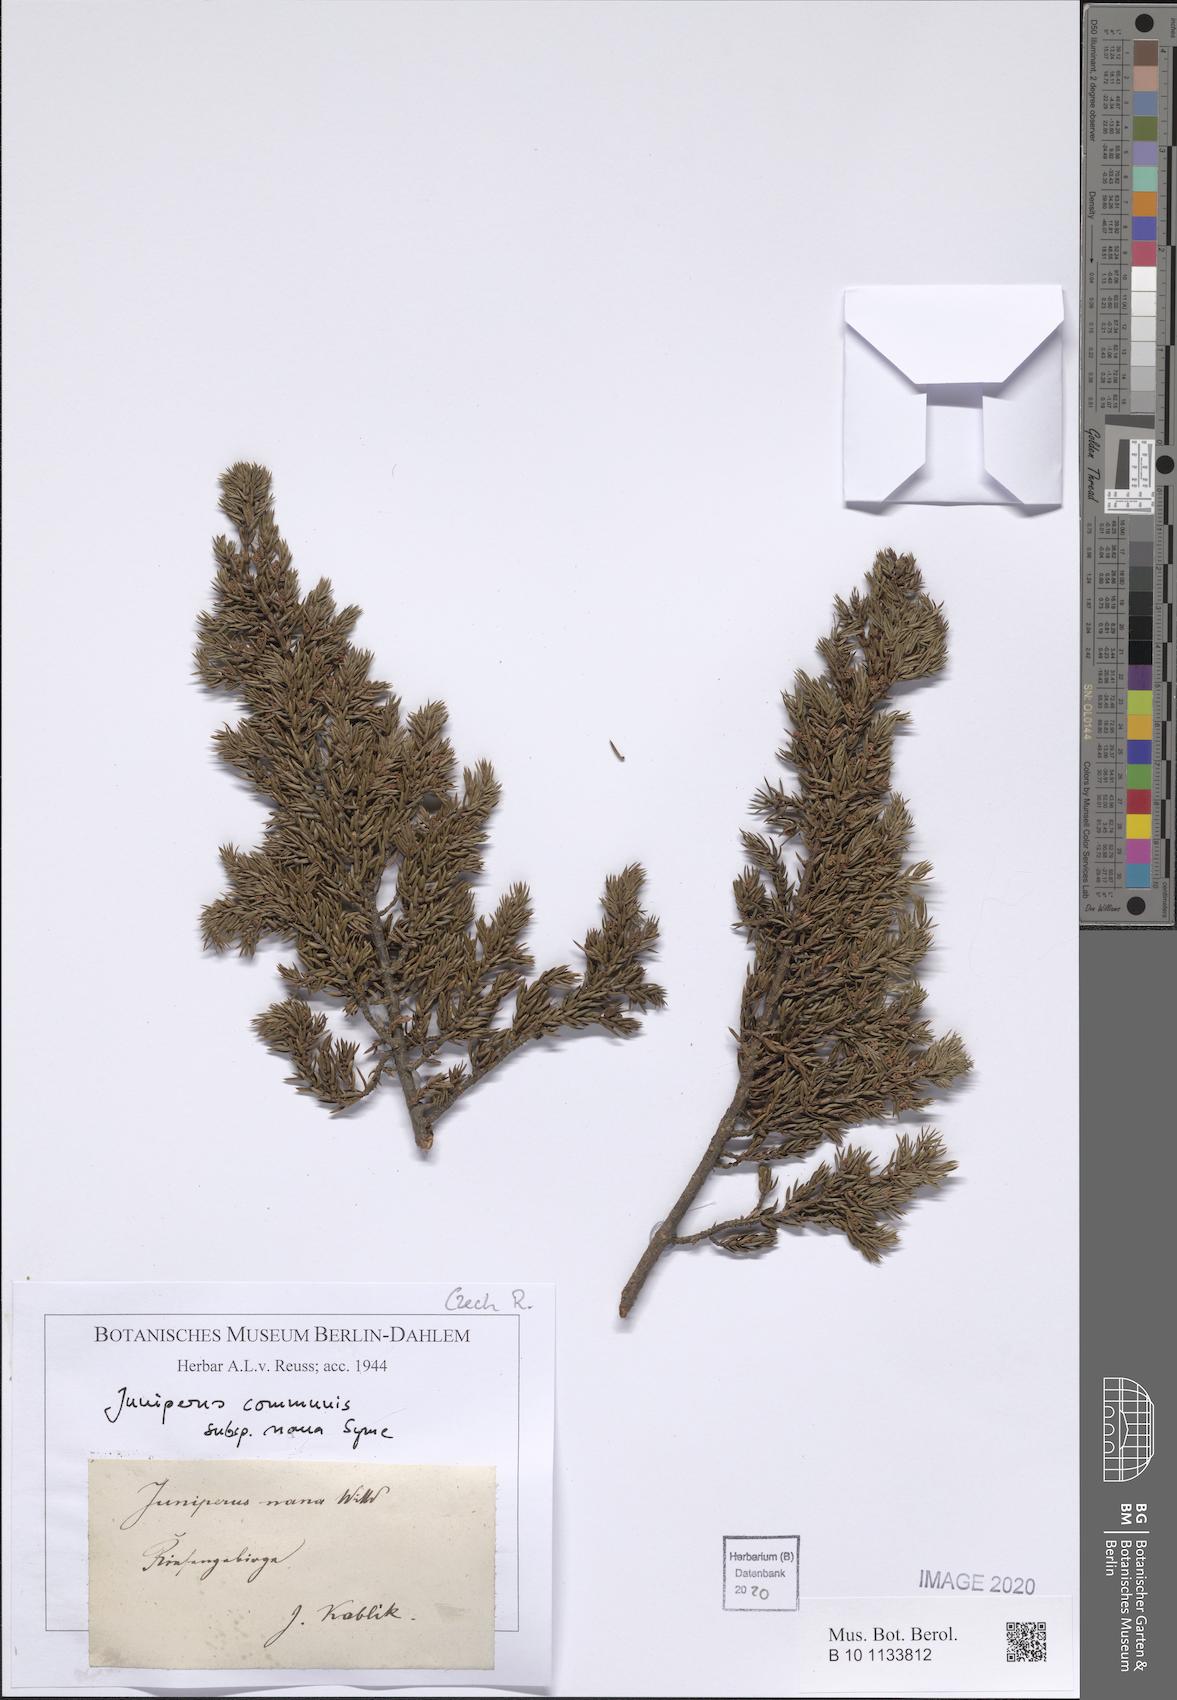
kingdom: Plantae
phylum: Tracheophyta
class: Pinopsida
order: Pinales
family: Cupressaceae
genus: Juniperus
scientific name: Juniperus communis
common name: Common juniper
